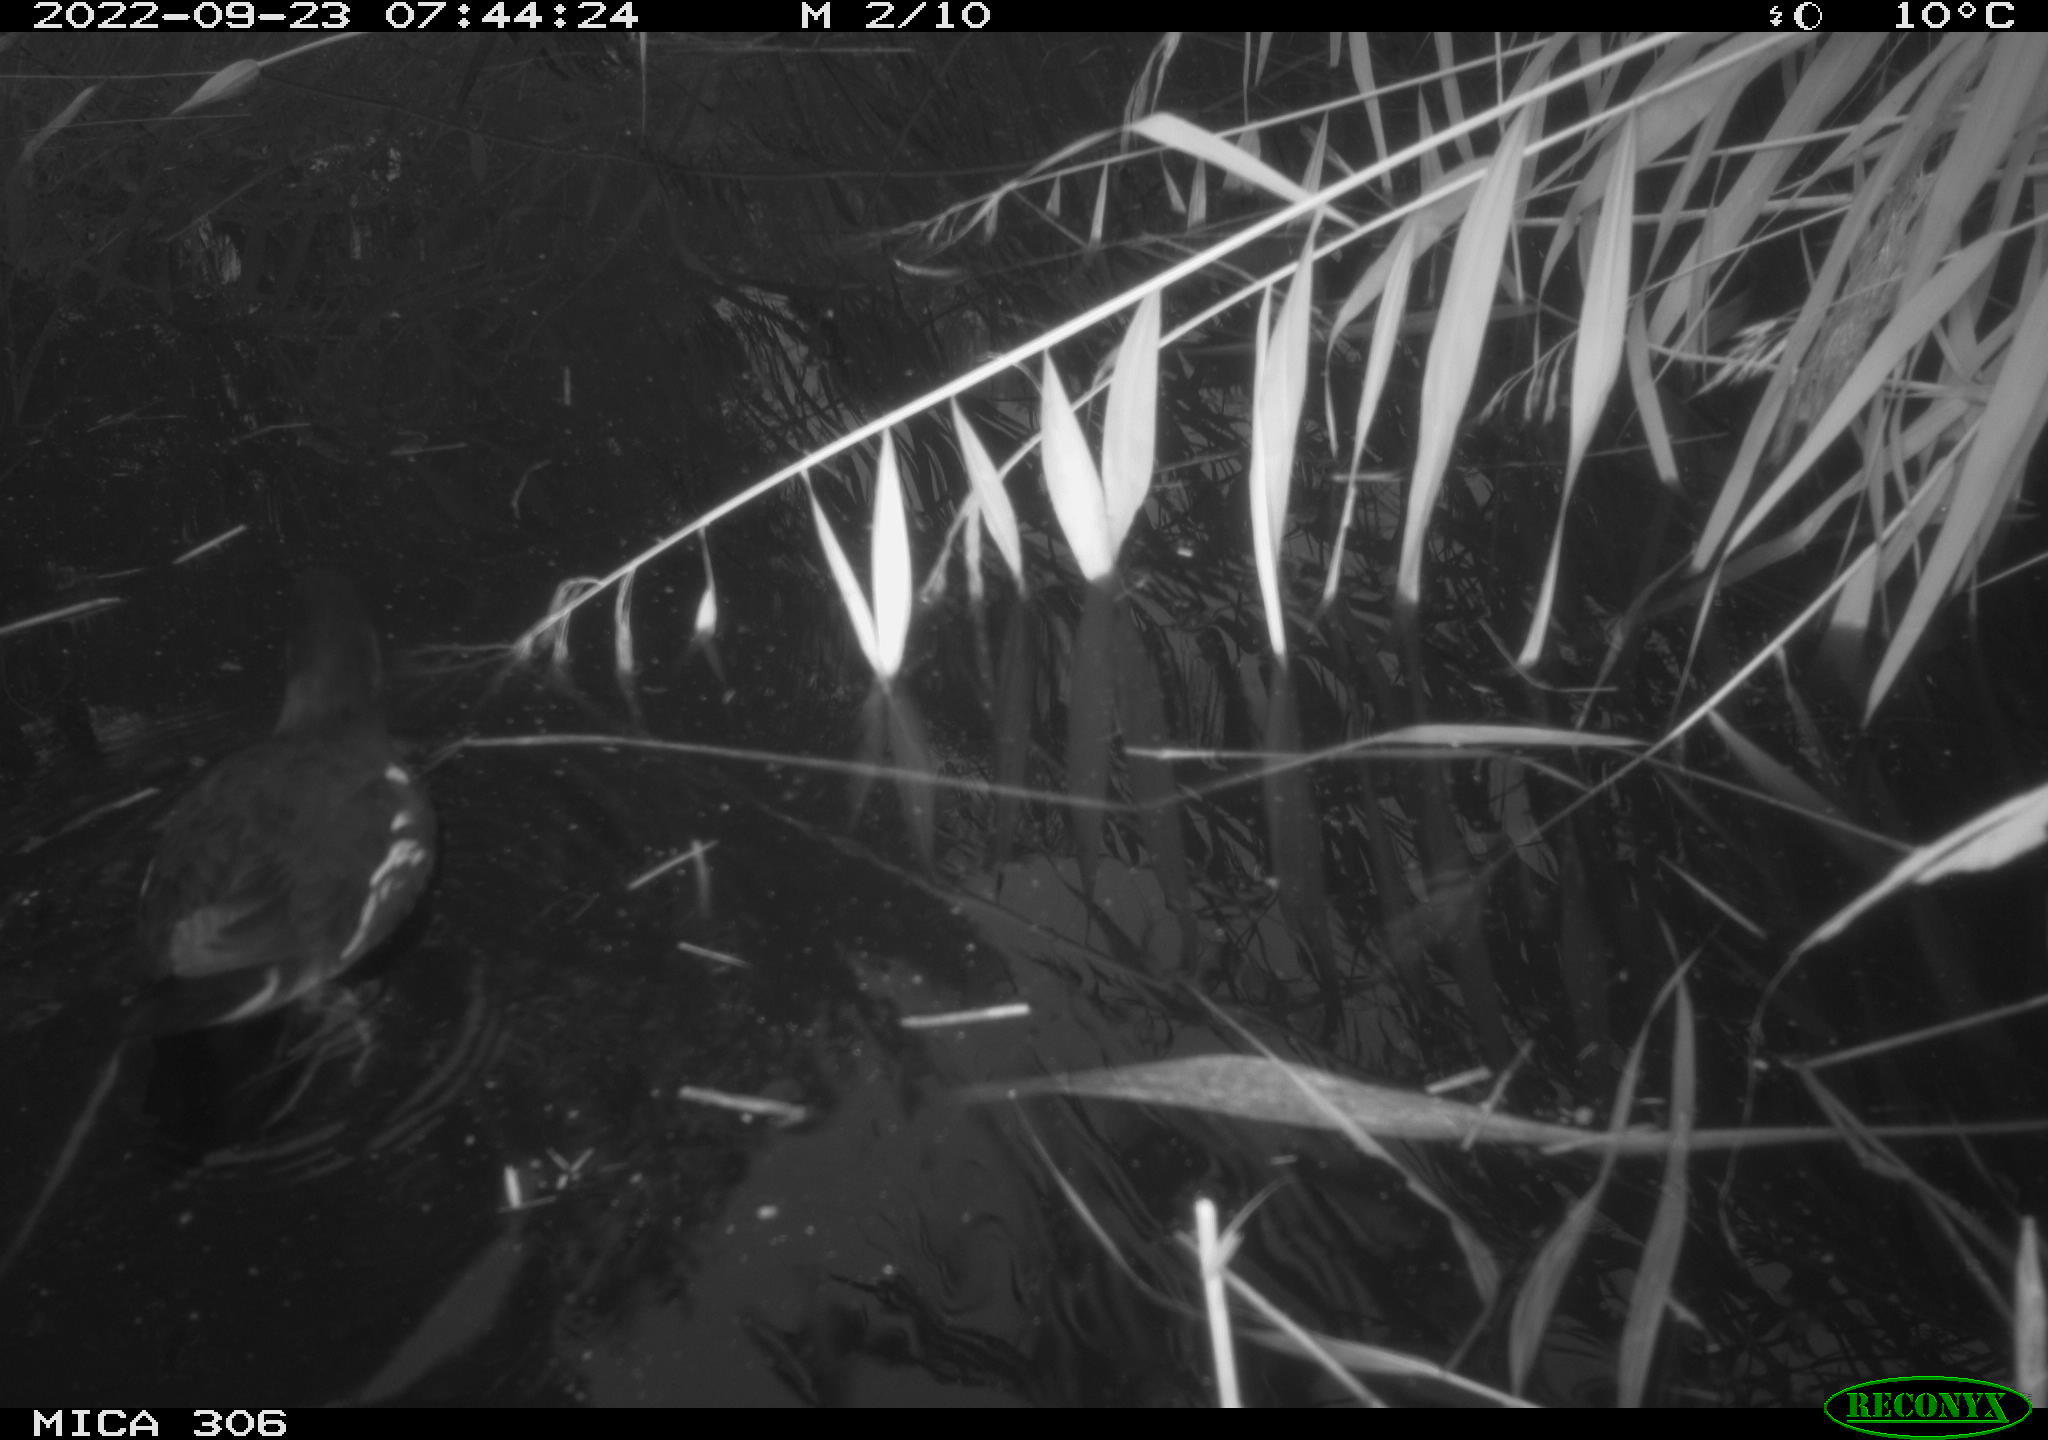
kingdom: Animalia
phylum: Chordata
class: Aves
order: Gruiformes
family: Rallidae
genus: Gallinula
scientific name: Gallinula chloropus
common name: Common moorhen
